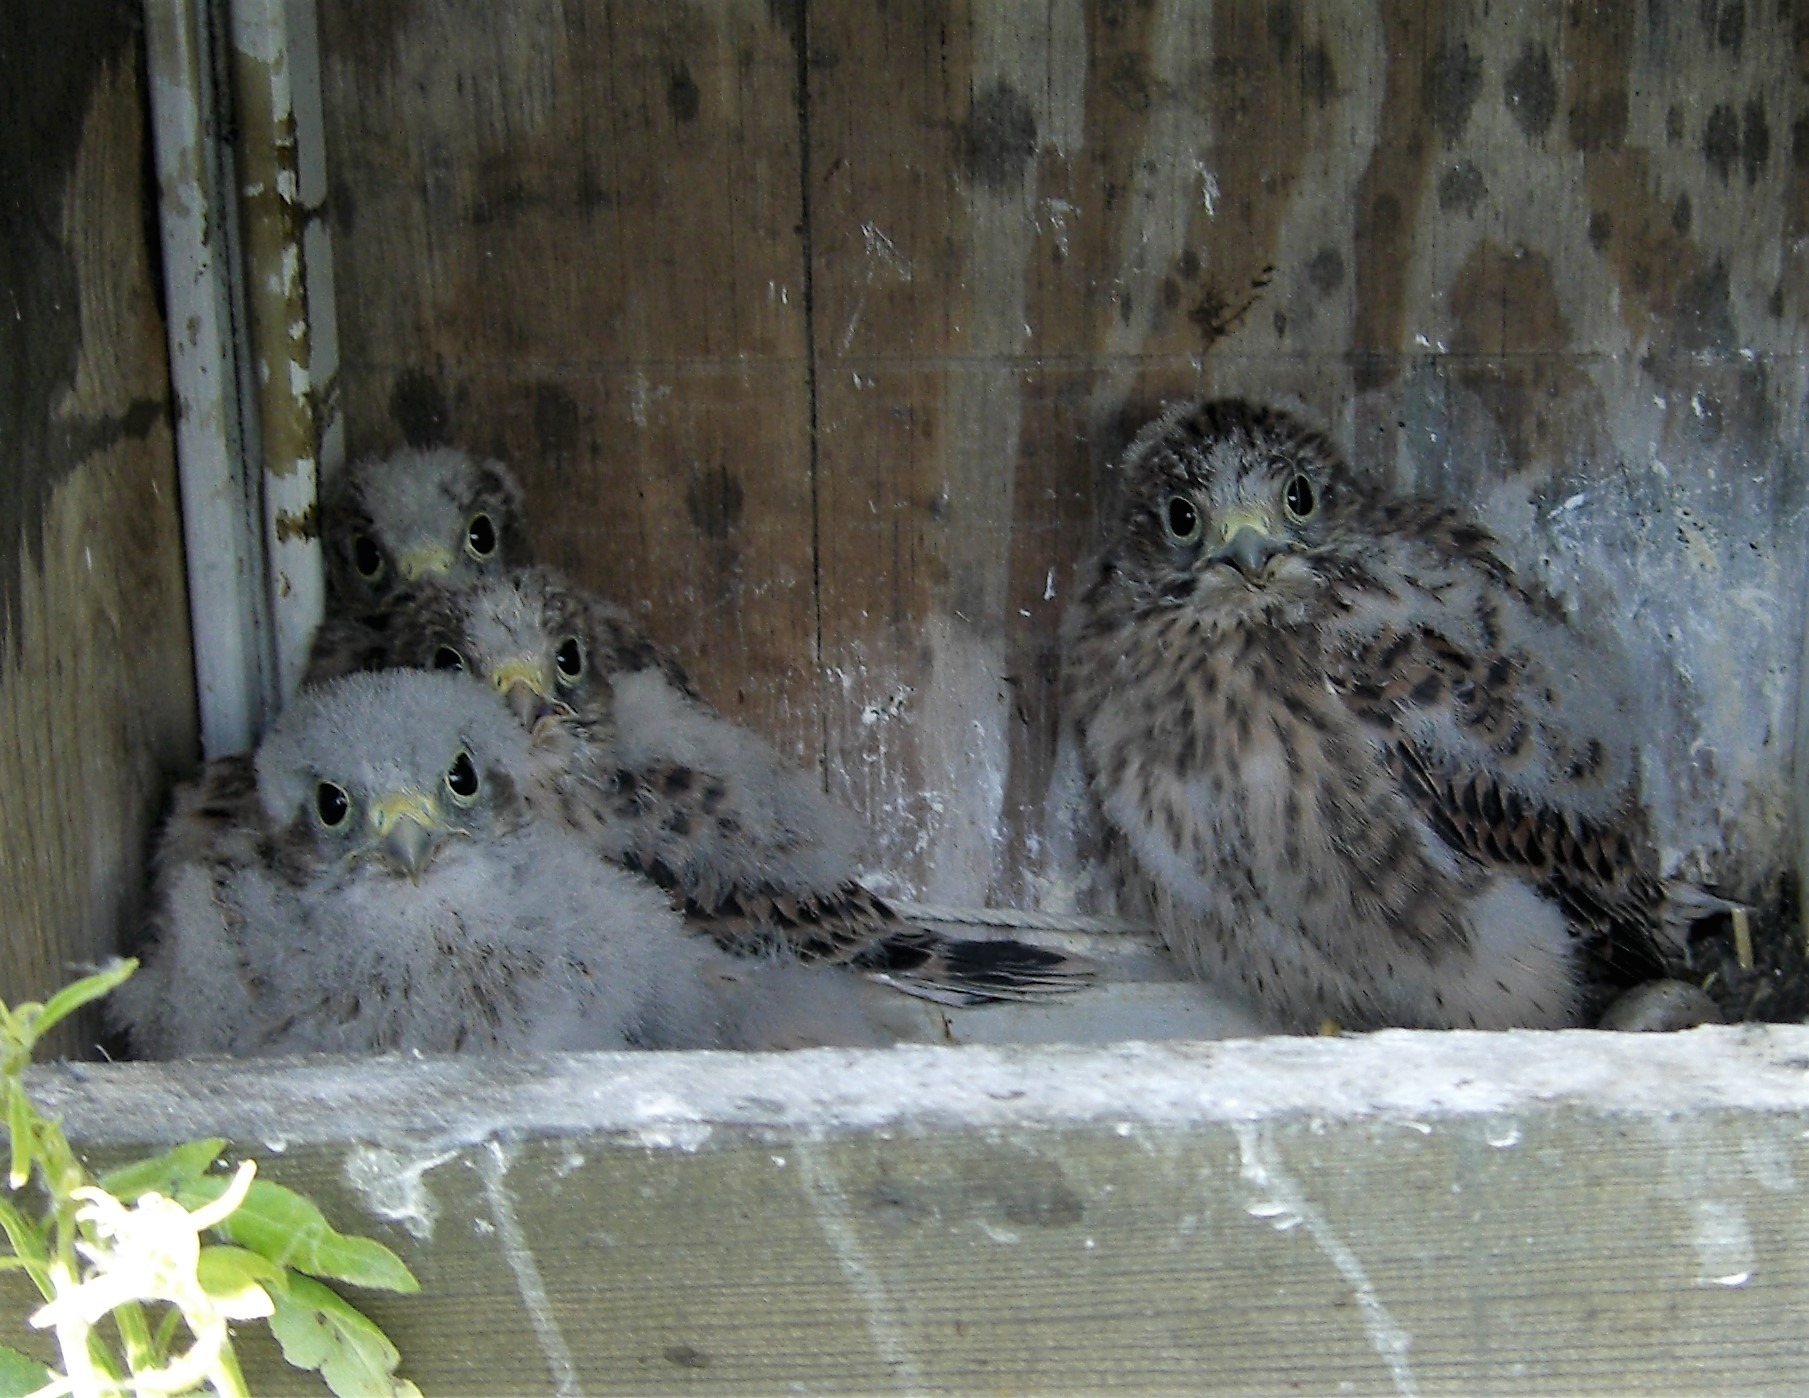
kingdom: Animalia
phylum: Chordata
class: Aves
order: Falconiformes
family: Falconidae
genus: Falco
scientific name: Falco tinnunculus
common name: Tårnfalk
